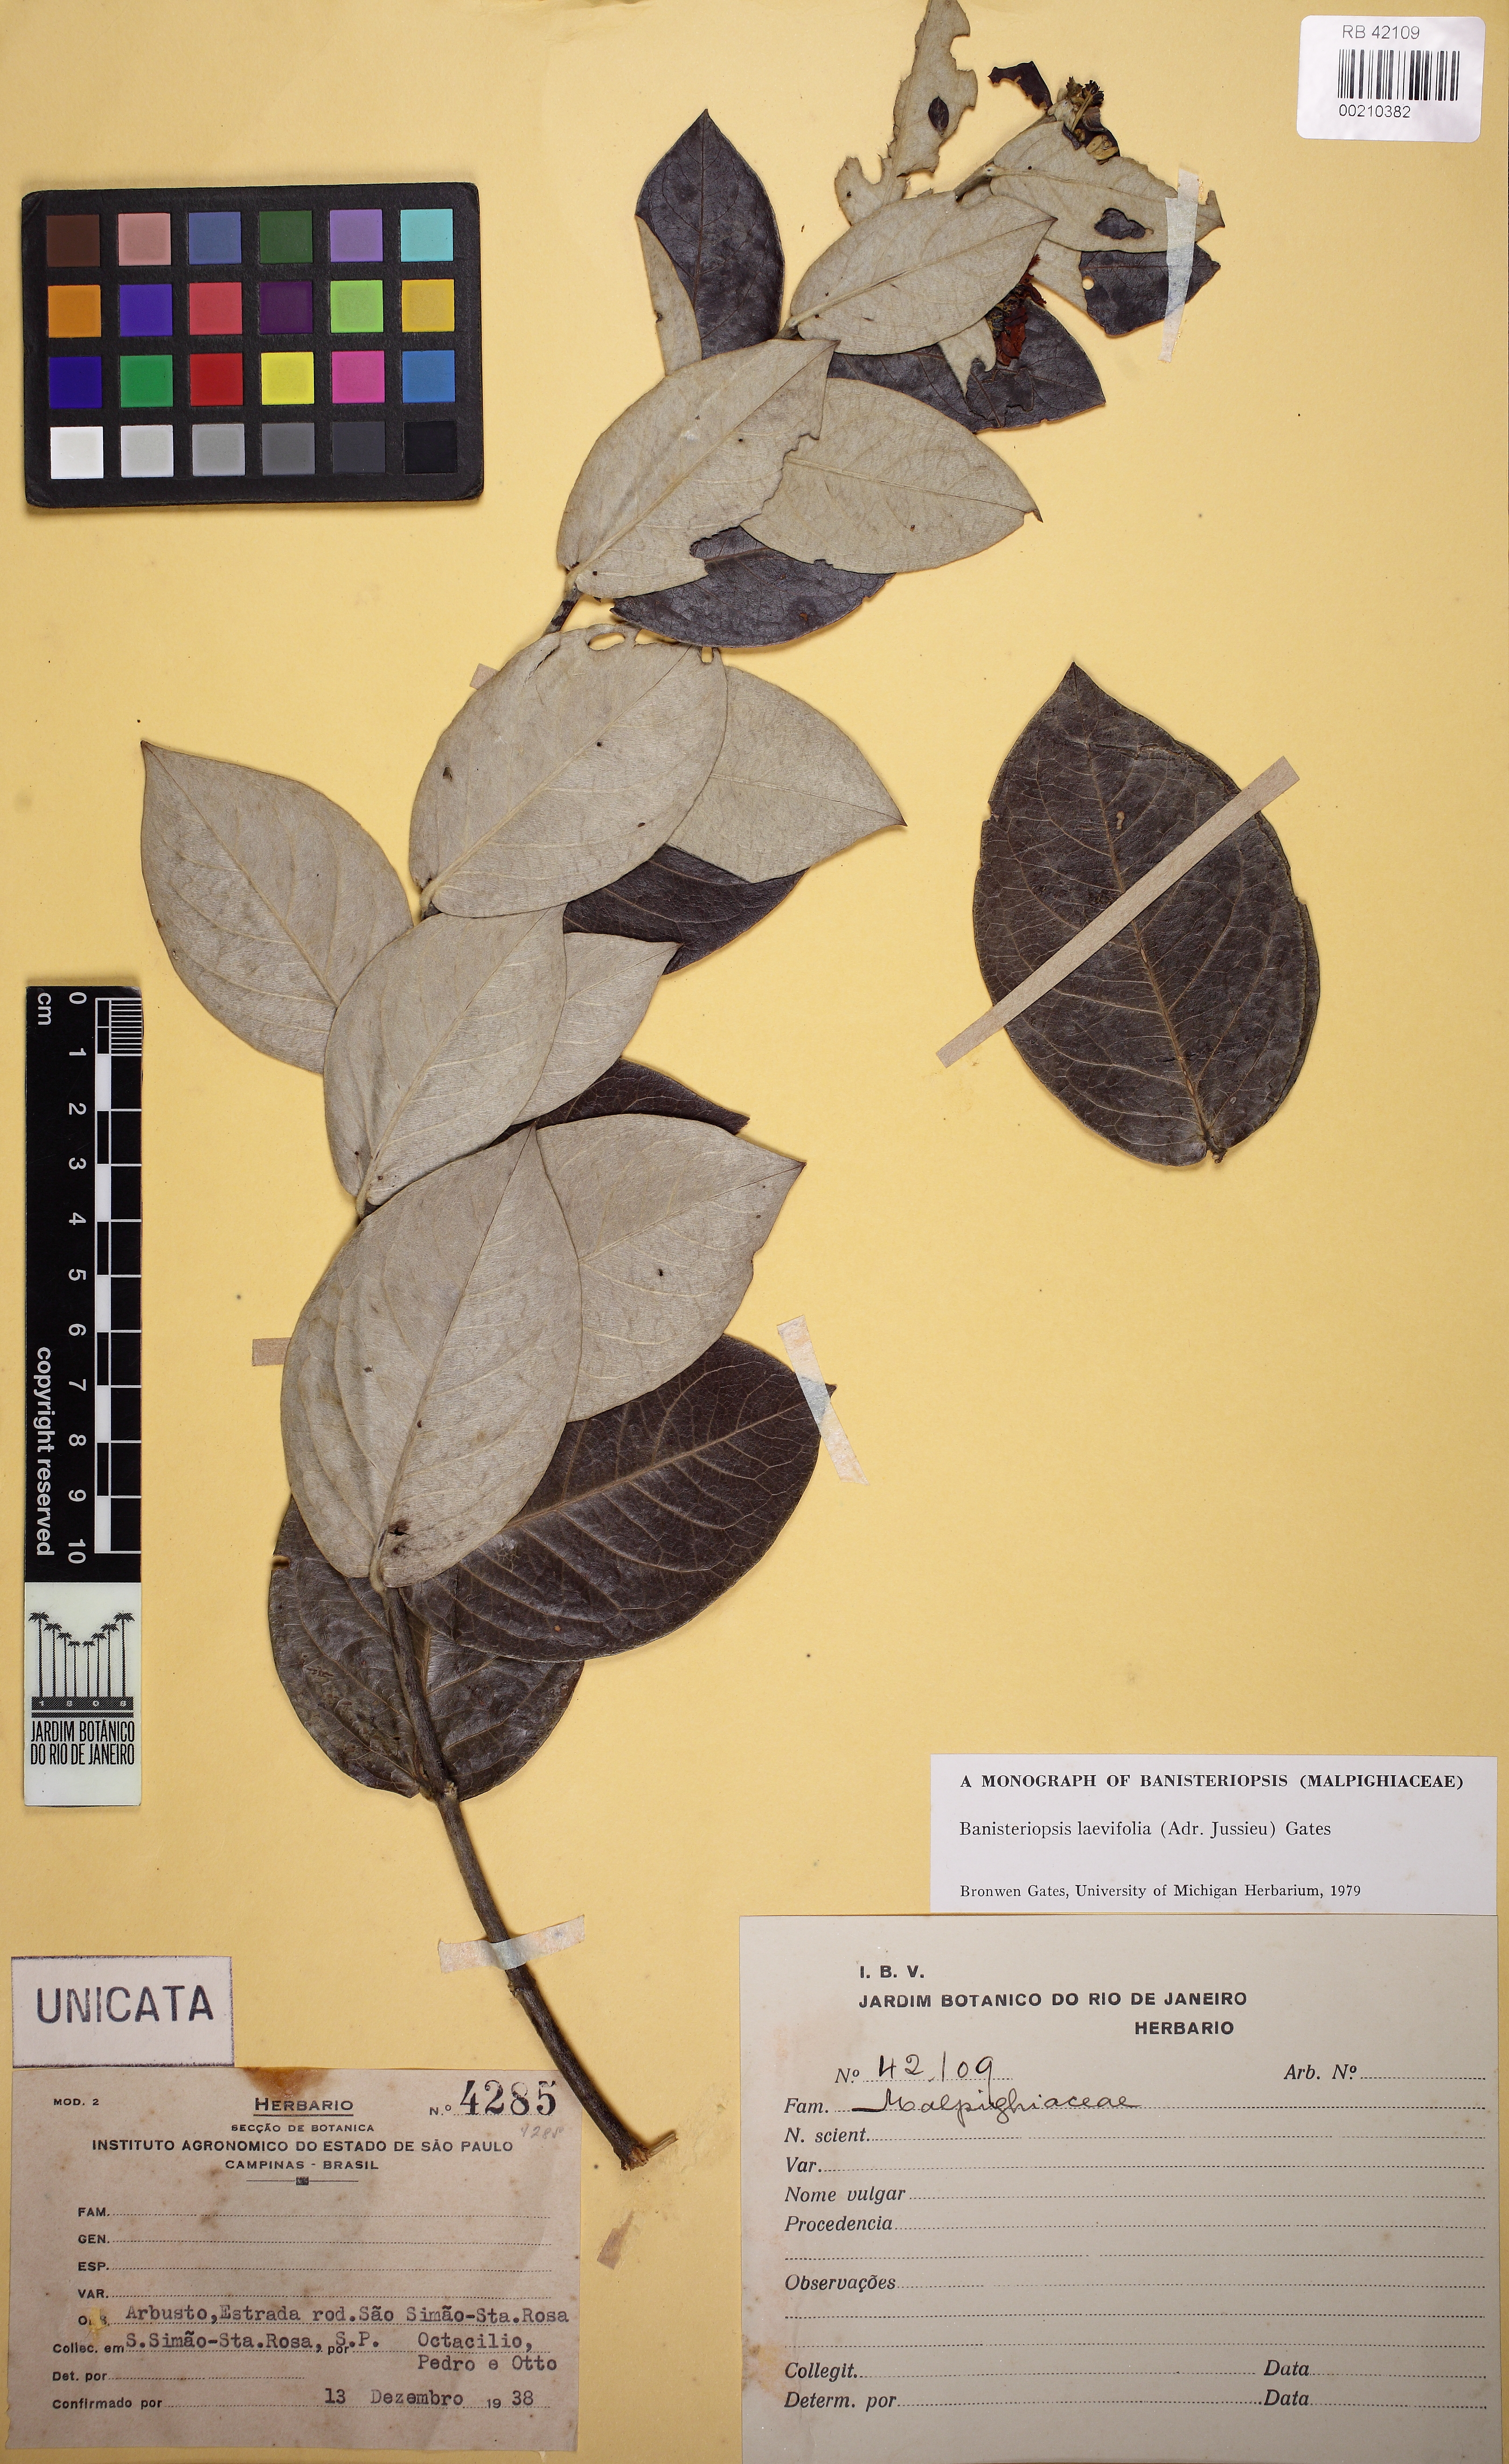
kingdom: Plantae
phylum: Tracheophyta
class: Magnoliopsida
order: Malpighiales
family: Malpighiaceae
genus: Banisteriopsis
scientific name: Banisteriopsis laevifolia
